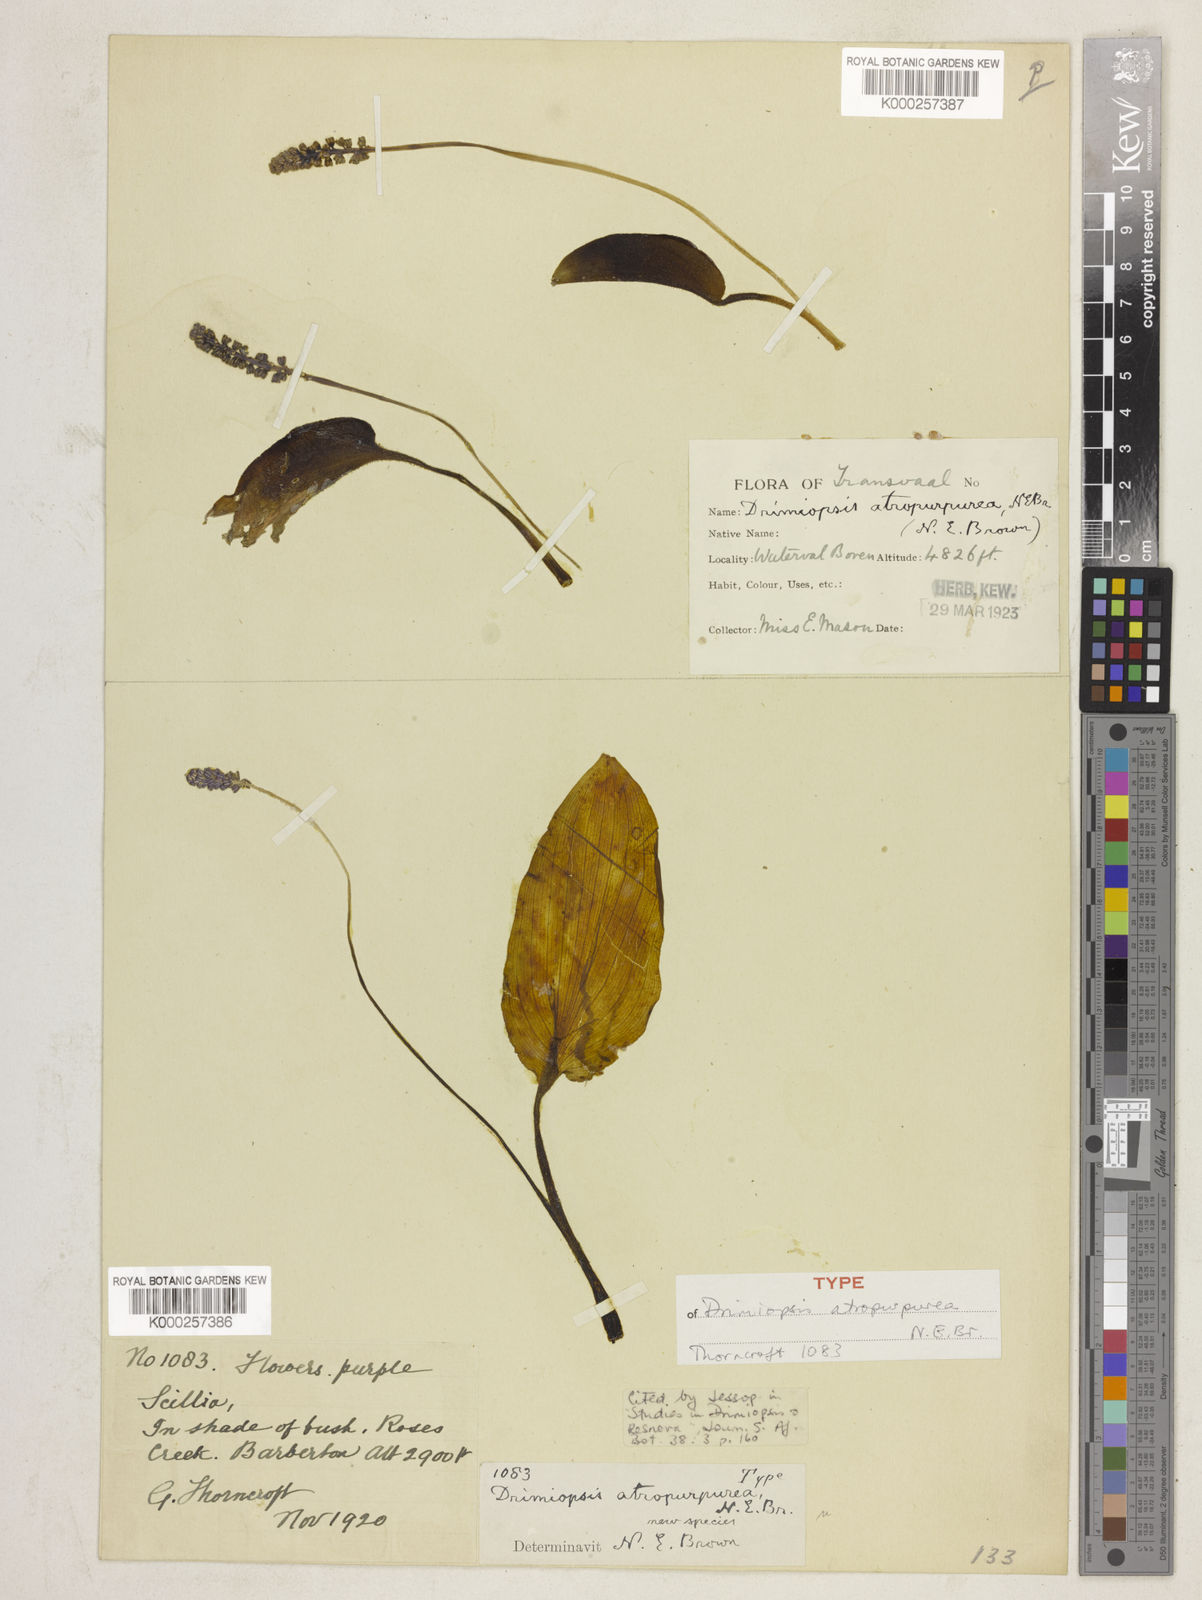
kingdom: Plantae
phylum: Tracheophyta
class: Liliopsida
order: Asparagales
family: Asparagaceae
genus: Drimiopsis
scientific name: Drimiopsis atropurpurea
